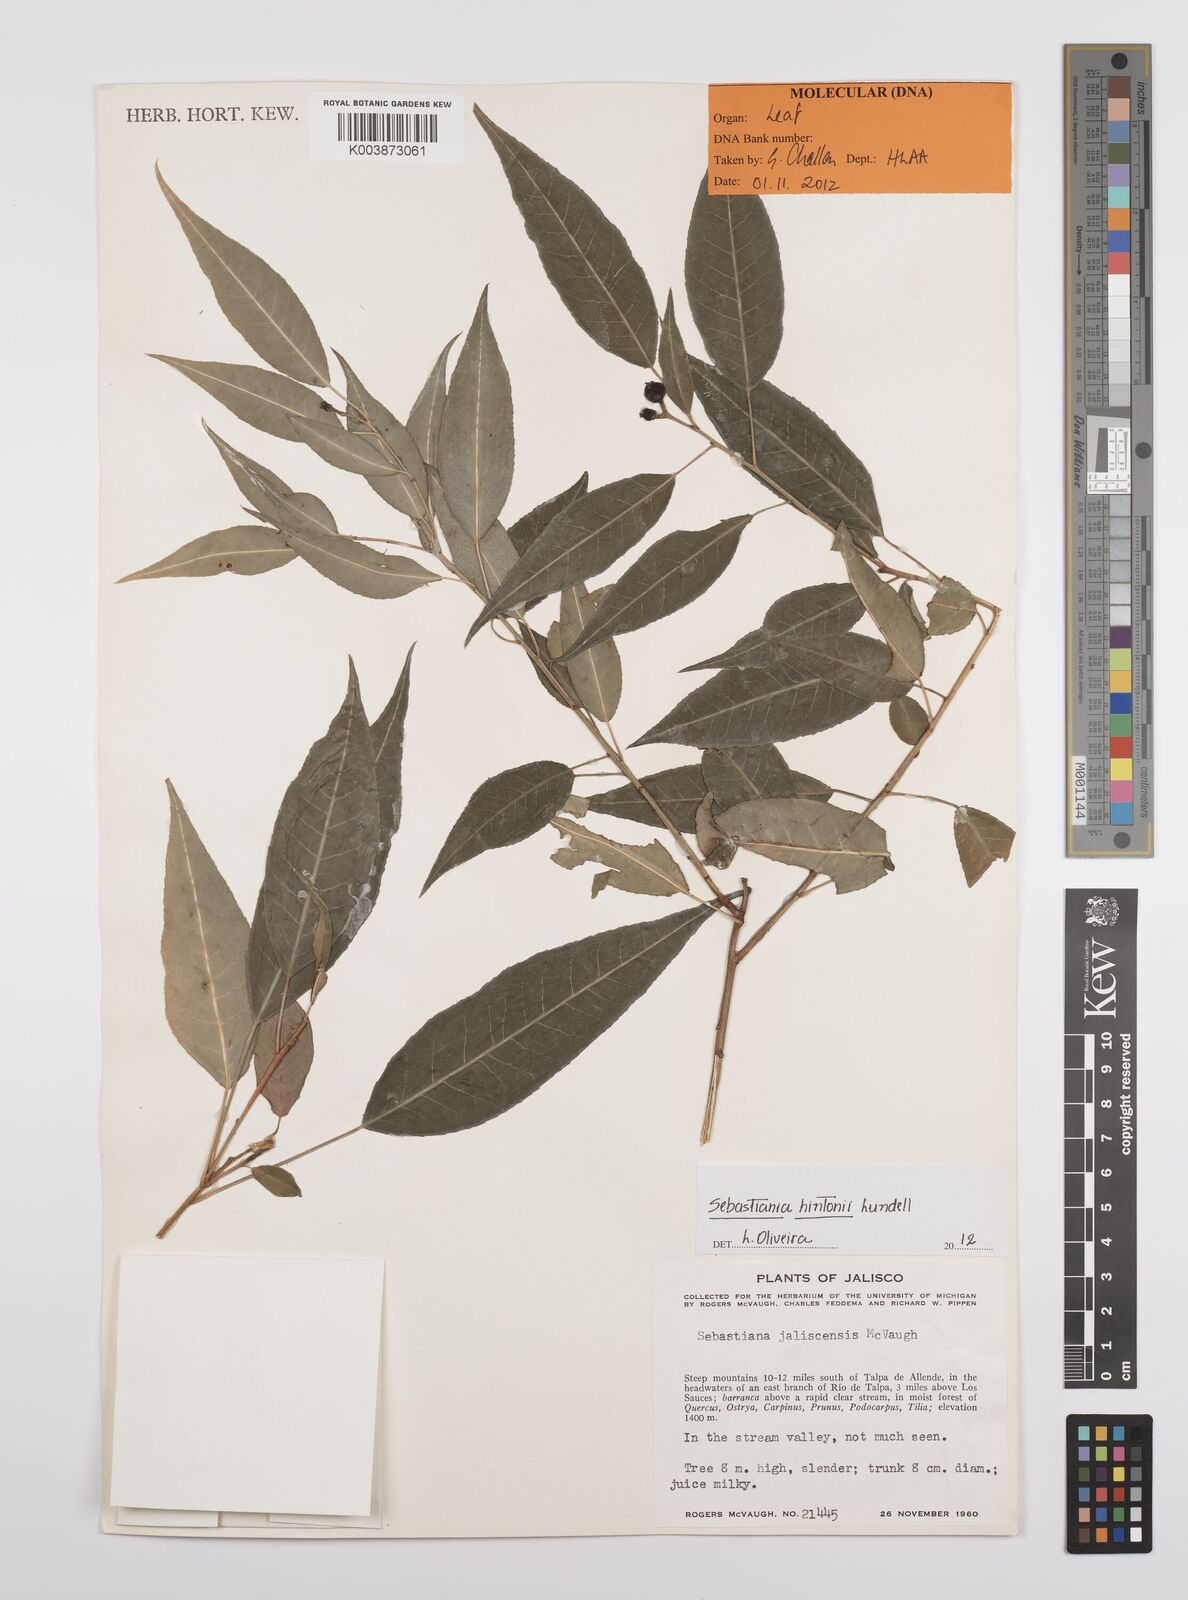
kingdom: Plantae
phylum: Tracheophyta
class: Magnoliopsida
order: Malpighiales
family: Euphorbiaceae
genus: Sebastiania
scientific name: Sebastiania hintonii
